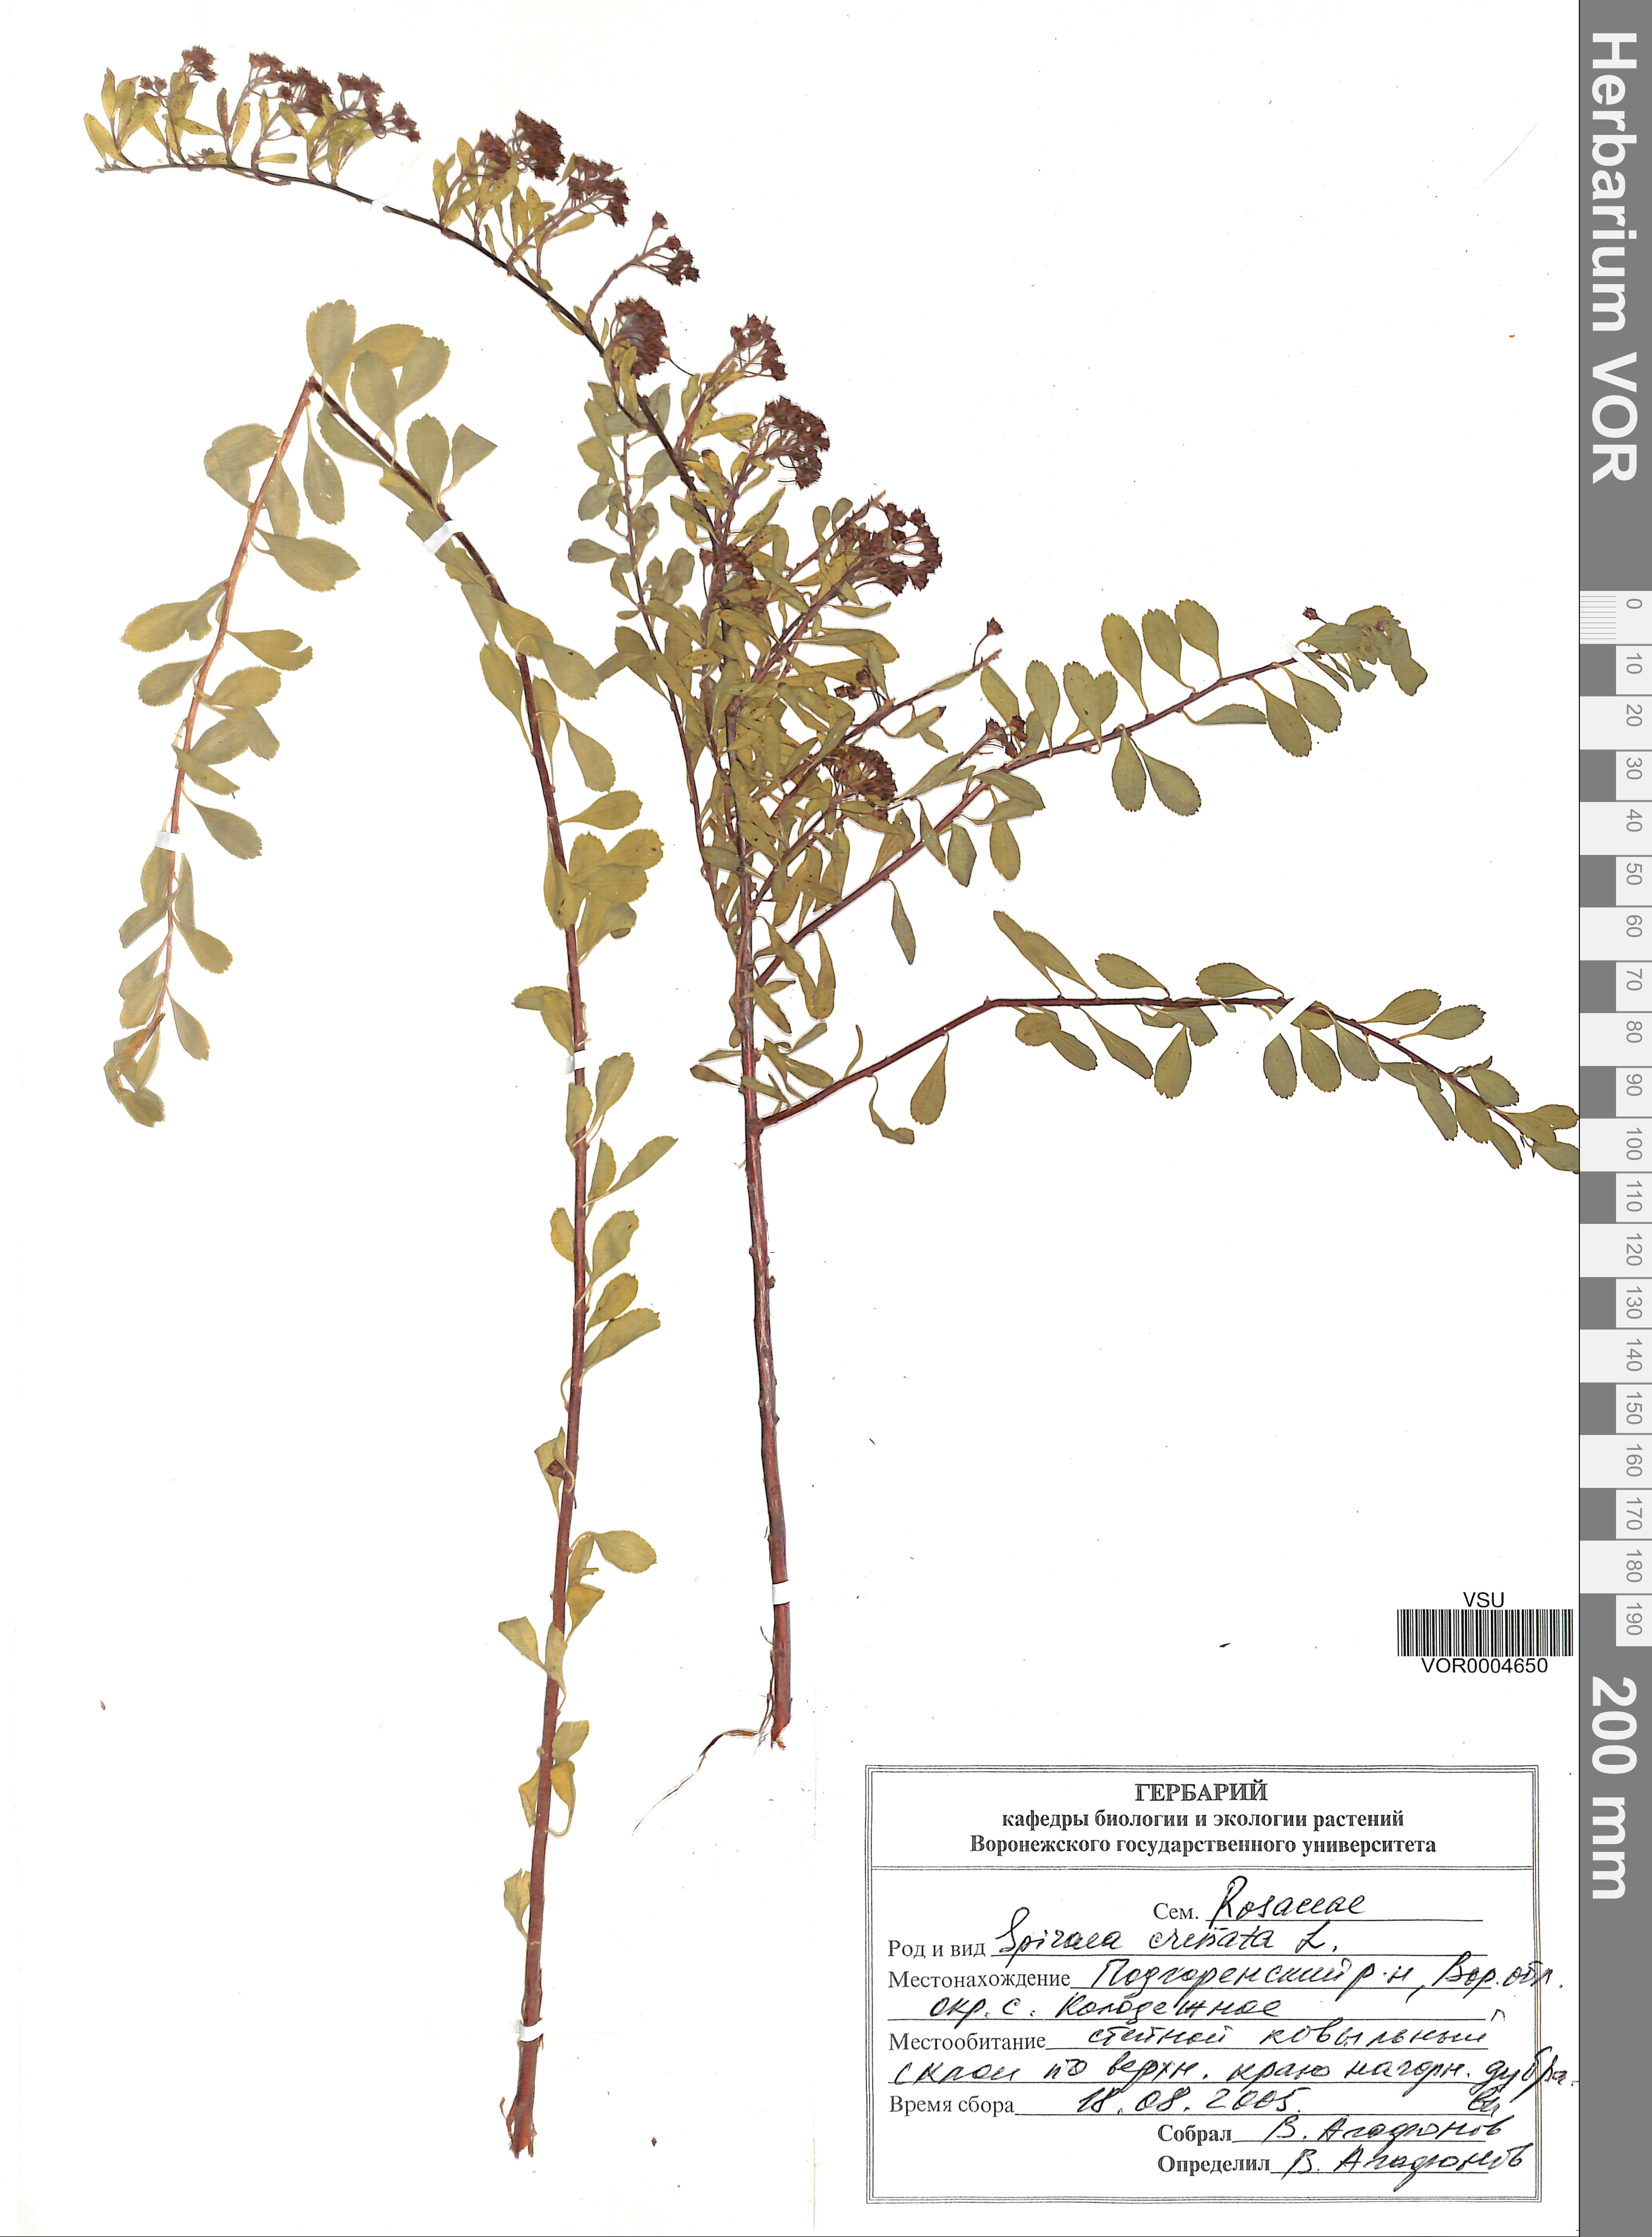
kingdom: Plantae
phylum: Tracheophyta
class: Magnoliopsida
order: Rosales
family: Rosaceae
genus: Spiraea
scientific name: Spiraea crenata
